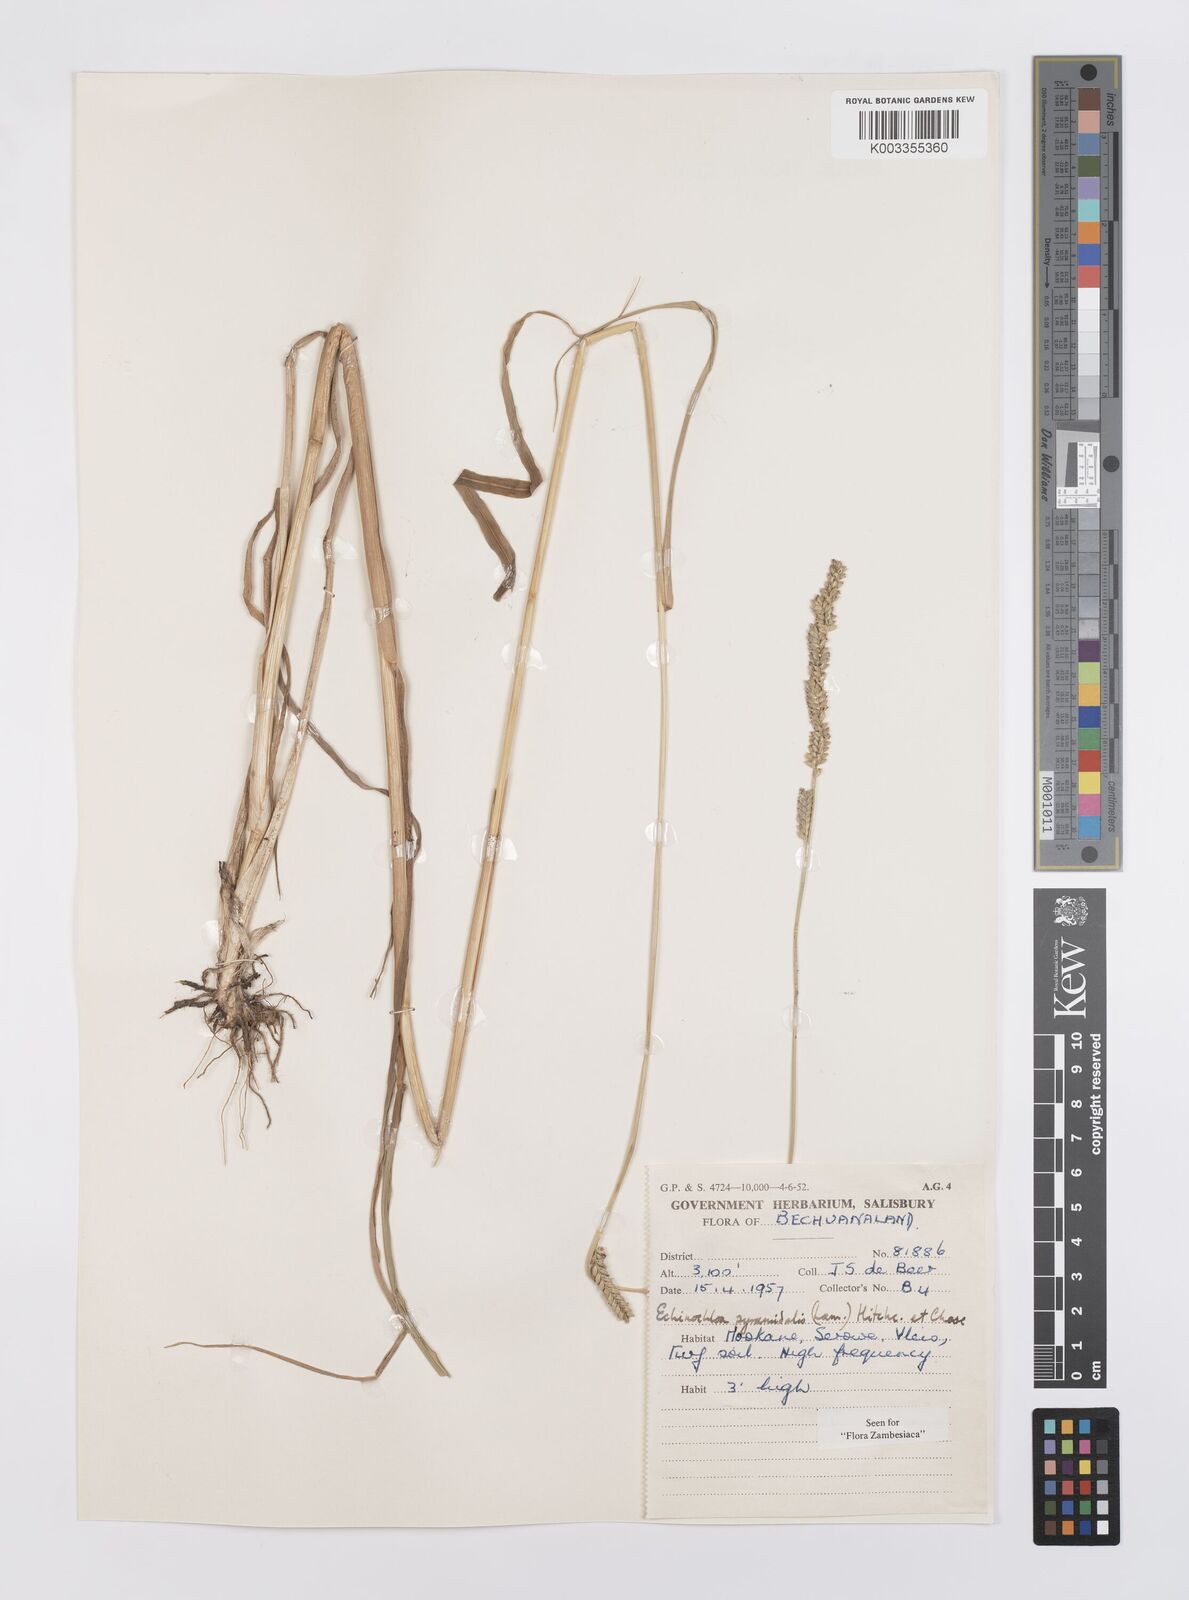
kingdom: Plantae
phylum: Tracheophyta
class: Liliopsida
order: Poales
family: Poaceae
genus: Echinochloa
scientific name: Echinochloa pyramidalis
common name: Antelope grass
